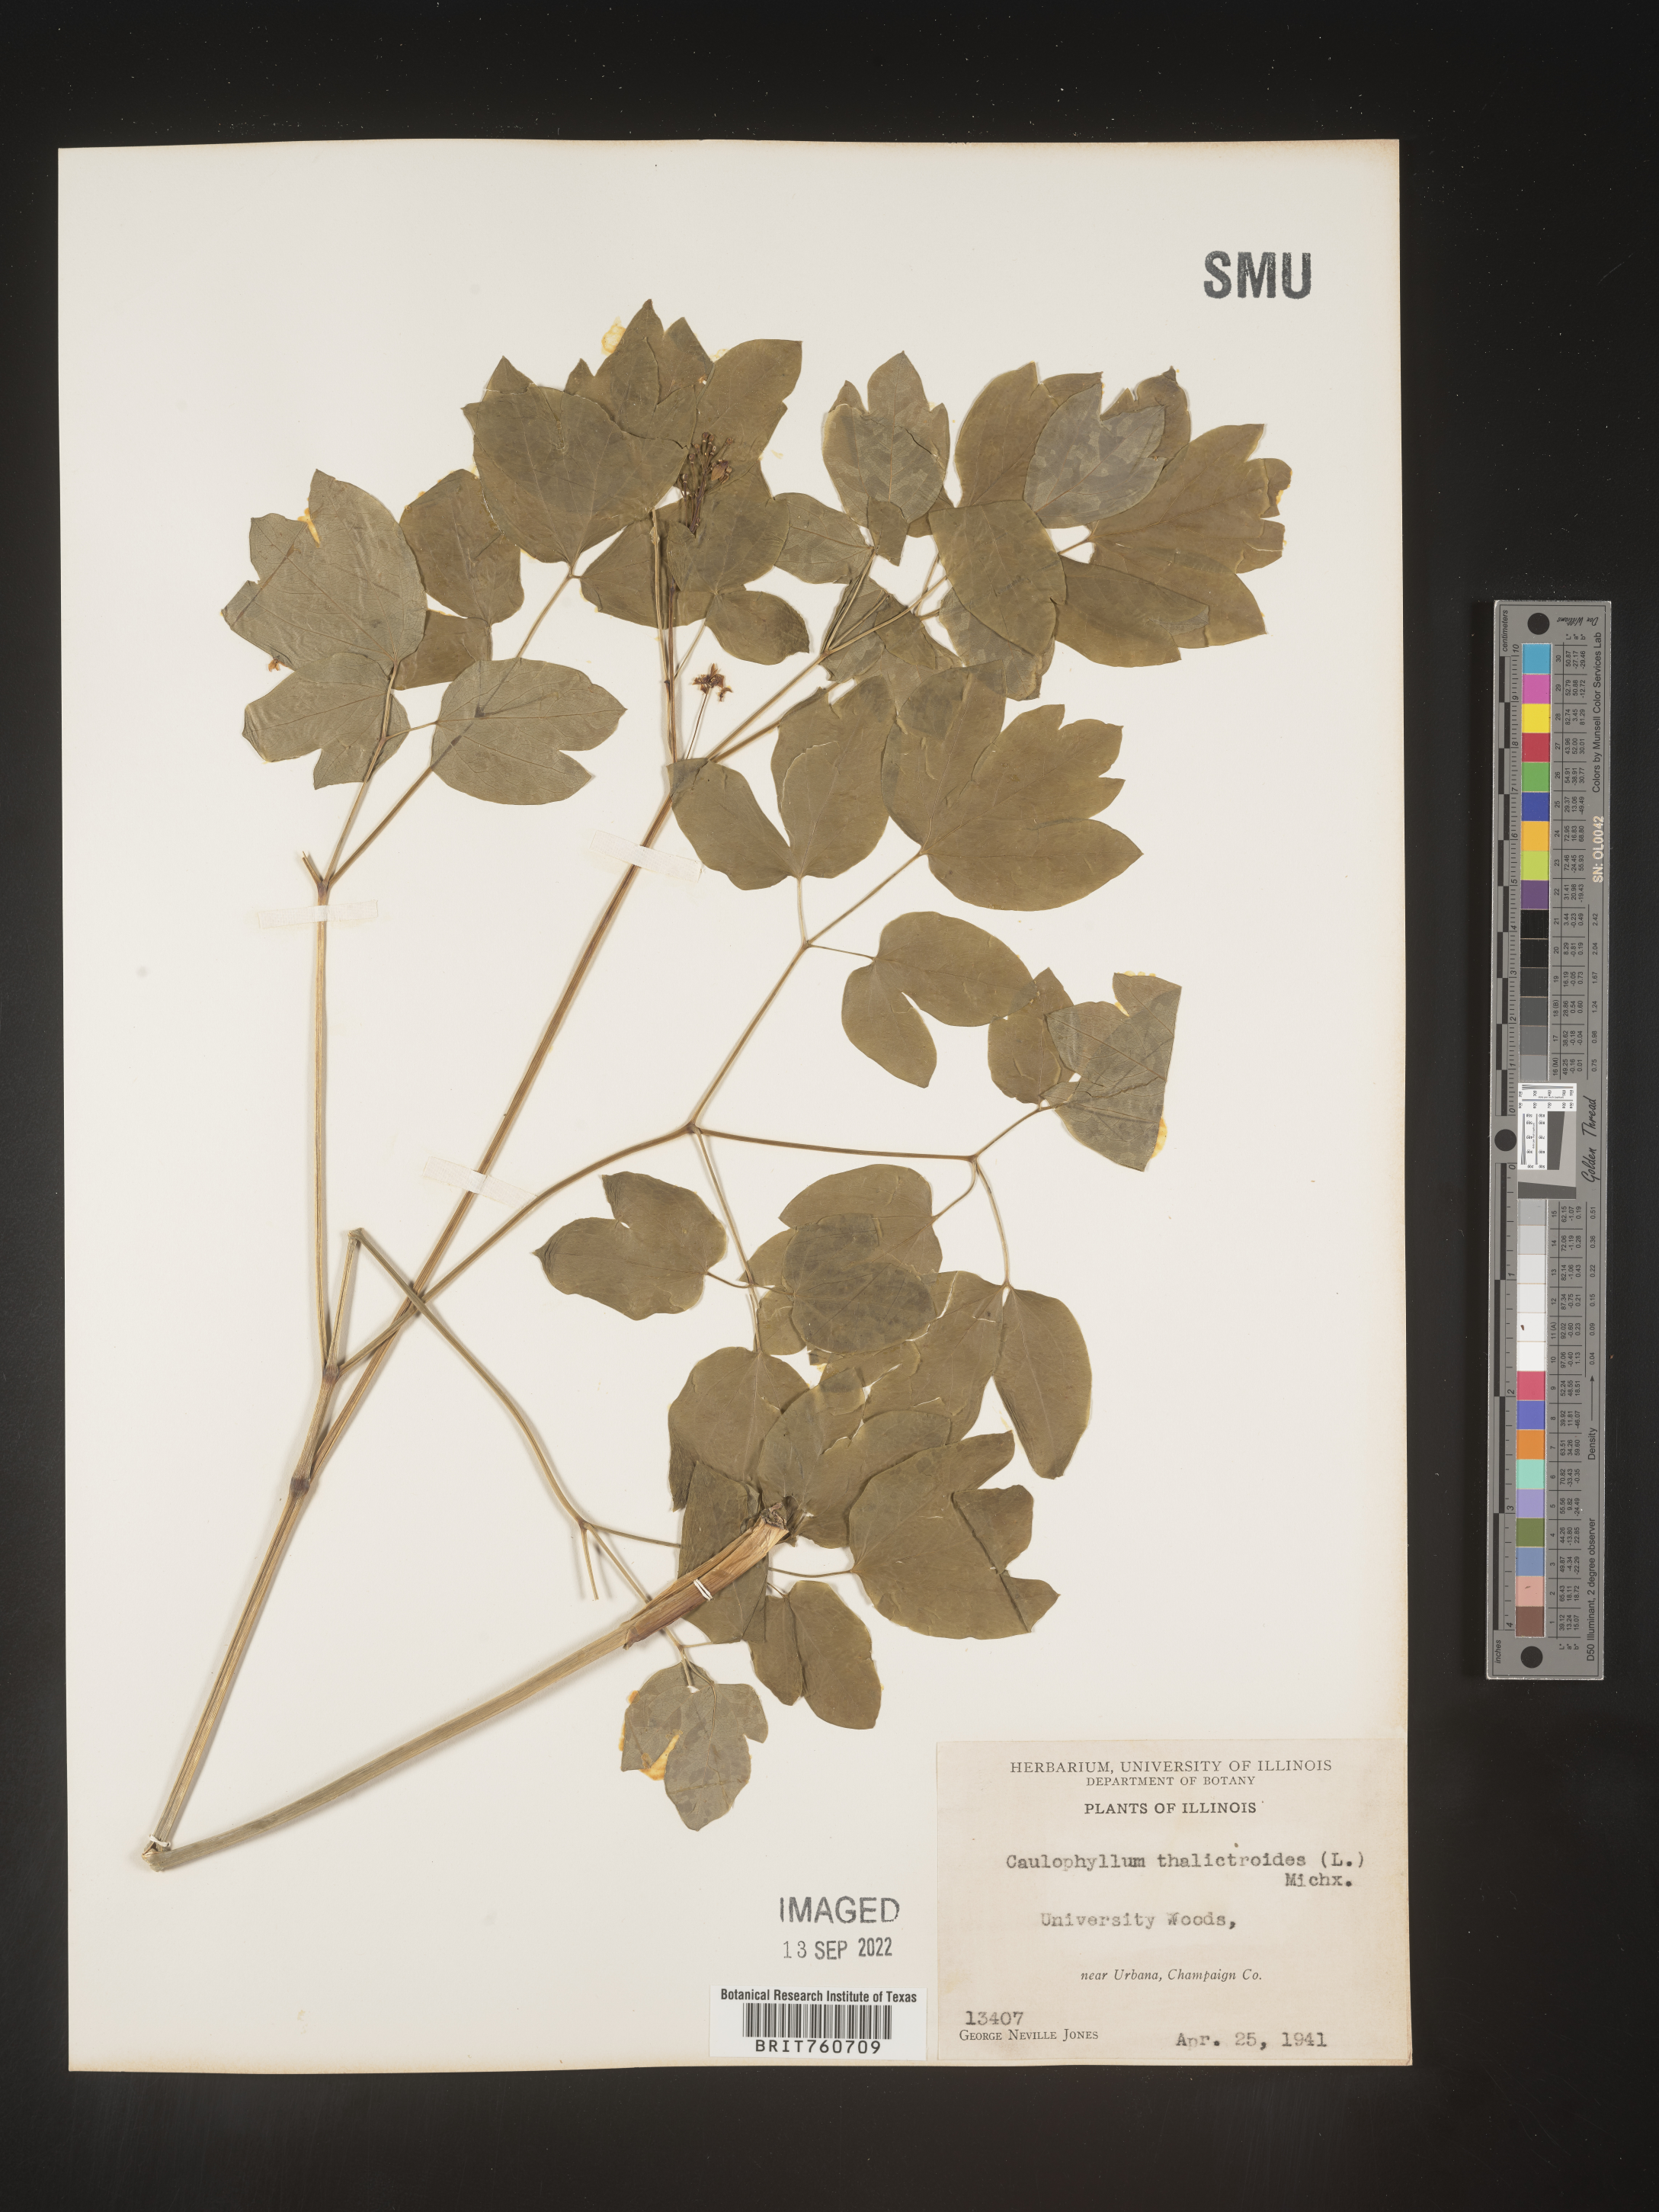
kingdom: Plantae
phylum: Tracheophyta
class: Magnoliopsida
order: Ranunculales
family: Berberidaceae
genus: Caulophyllum
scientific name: Caulophyllum thalictroides
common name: Blue cohosh
